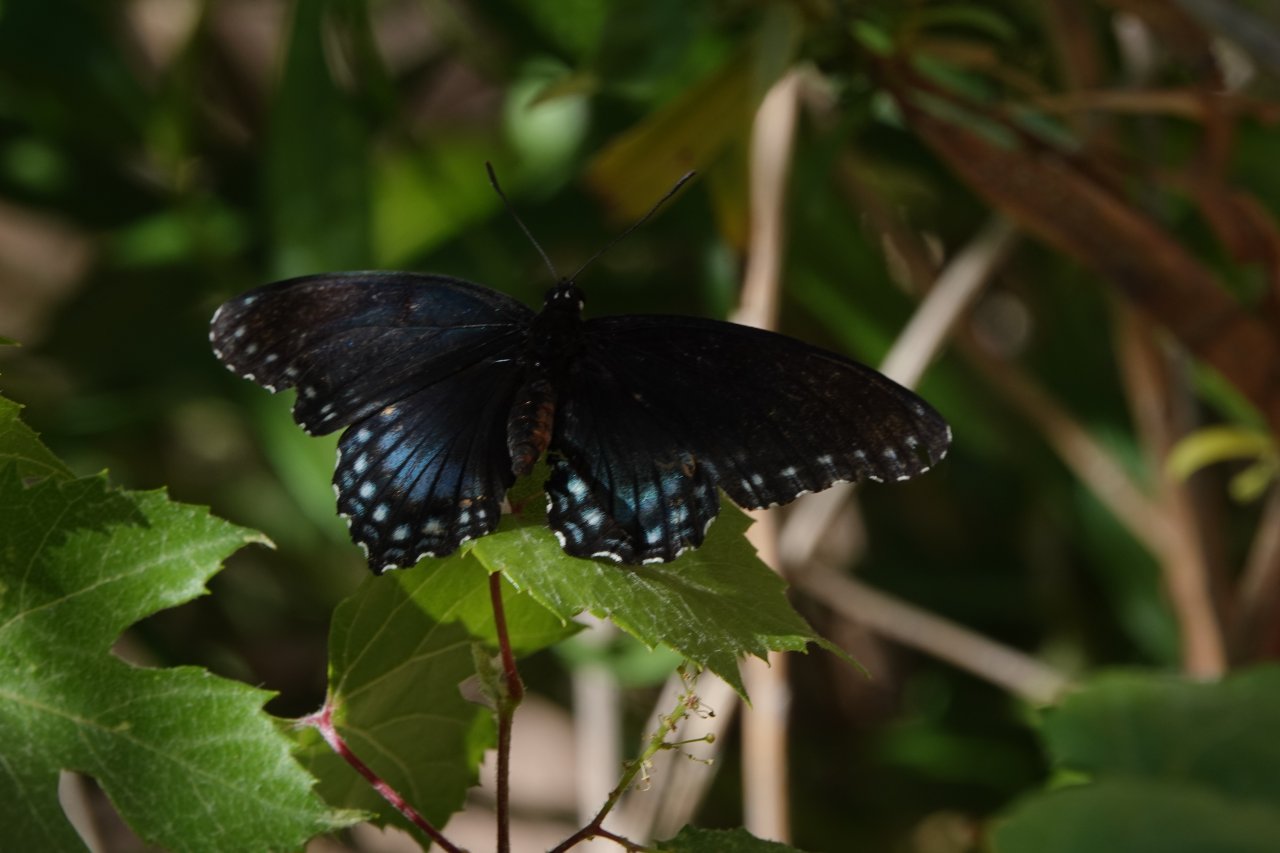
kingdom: Animalia
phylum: Arthropoda
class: Insecta
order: Lepidoptera
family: Nymphalidae
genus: Limenitis
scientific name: Limenitis arthemis
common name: Red-spotted Admiral
